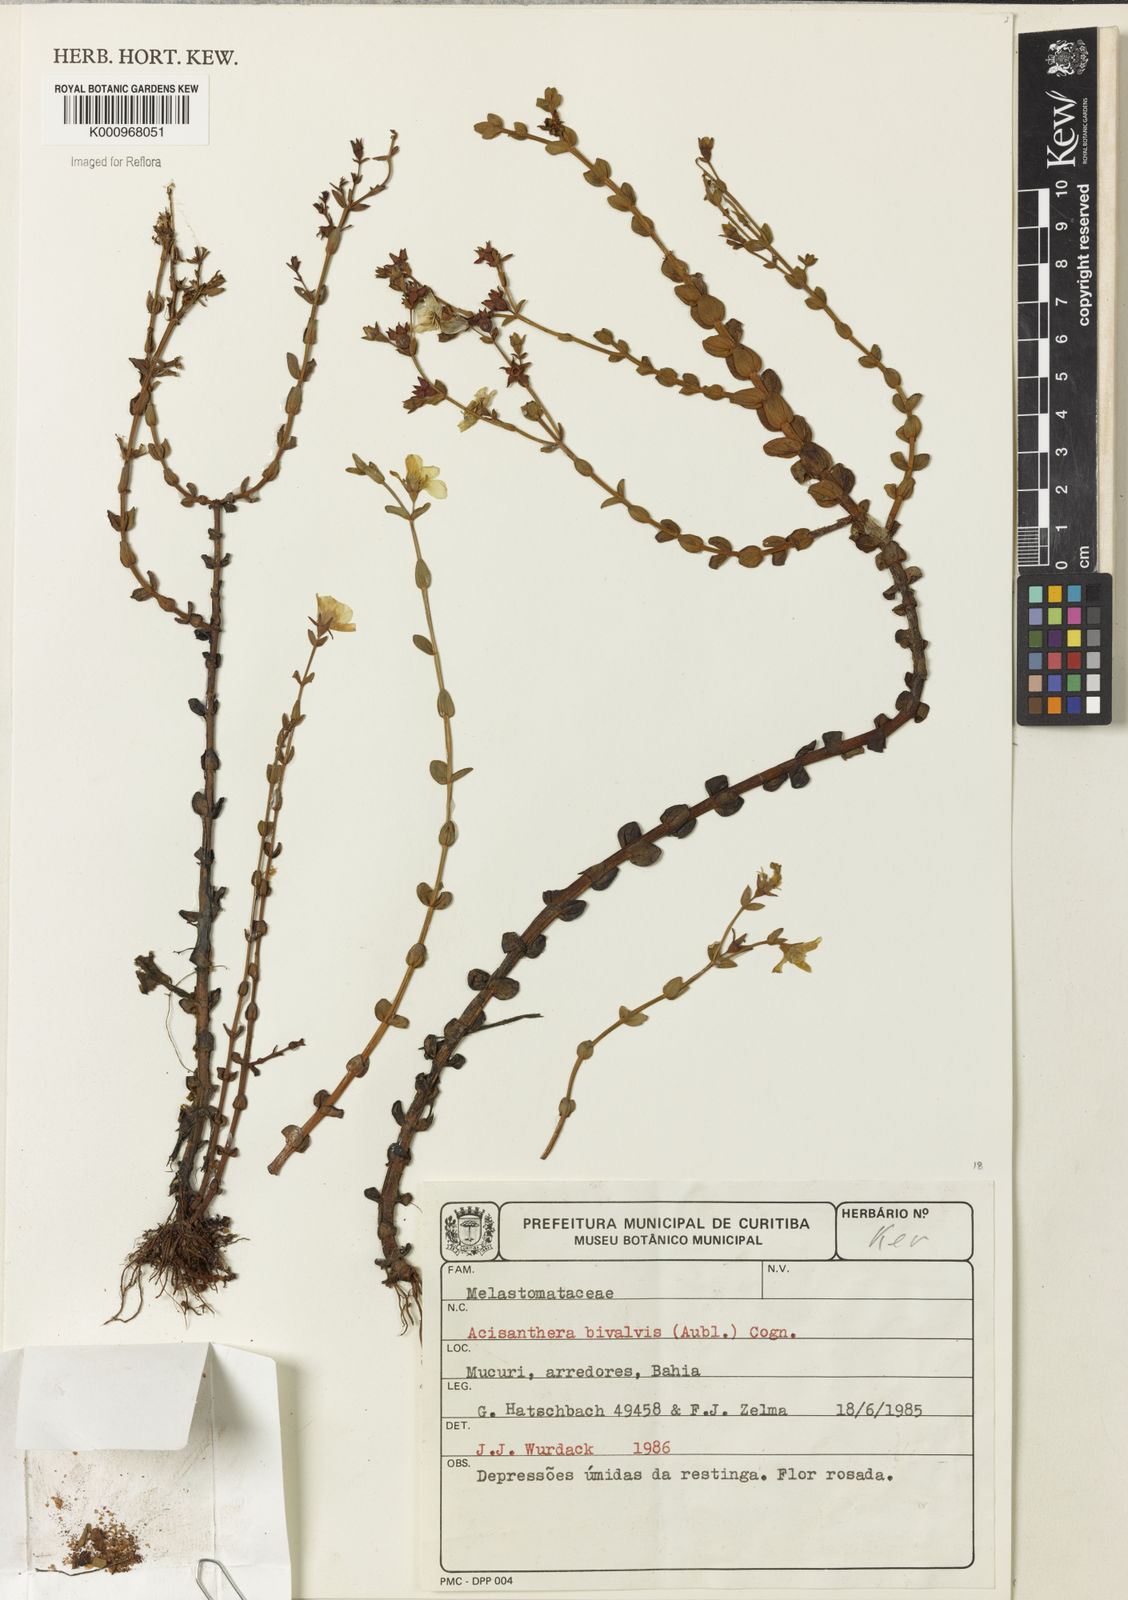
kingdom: Plantae
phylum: Tracheophyta
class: Magnoliopsida
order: Myrtales
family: Melastomataceae
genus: Noterophila
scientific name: Noterophila bivalvis
